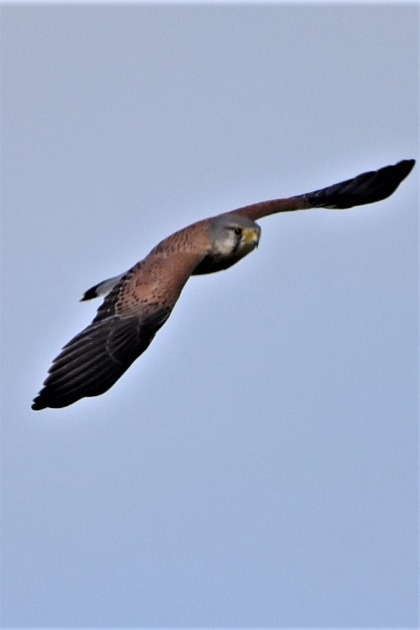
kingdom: Animalia
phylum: Chordata
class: Aves
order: Falconiformes
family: Falconidae
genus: Falco
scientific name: Falco tinnunculus
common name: Tårnfalk
